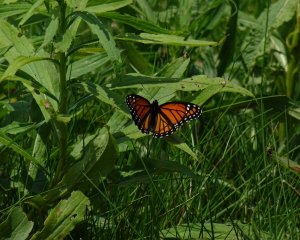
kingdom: Animalia
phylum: Arthropoda
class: Insecta
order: Lepidoptera
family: Nymphalidae
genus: Limenitis
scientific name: Limenitis archippus
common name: Viceroy
